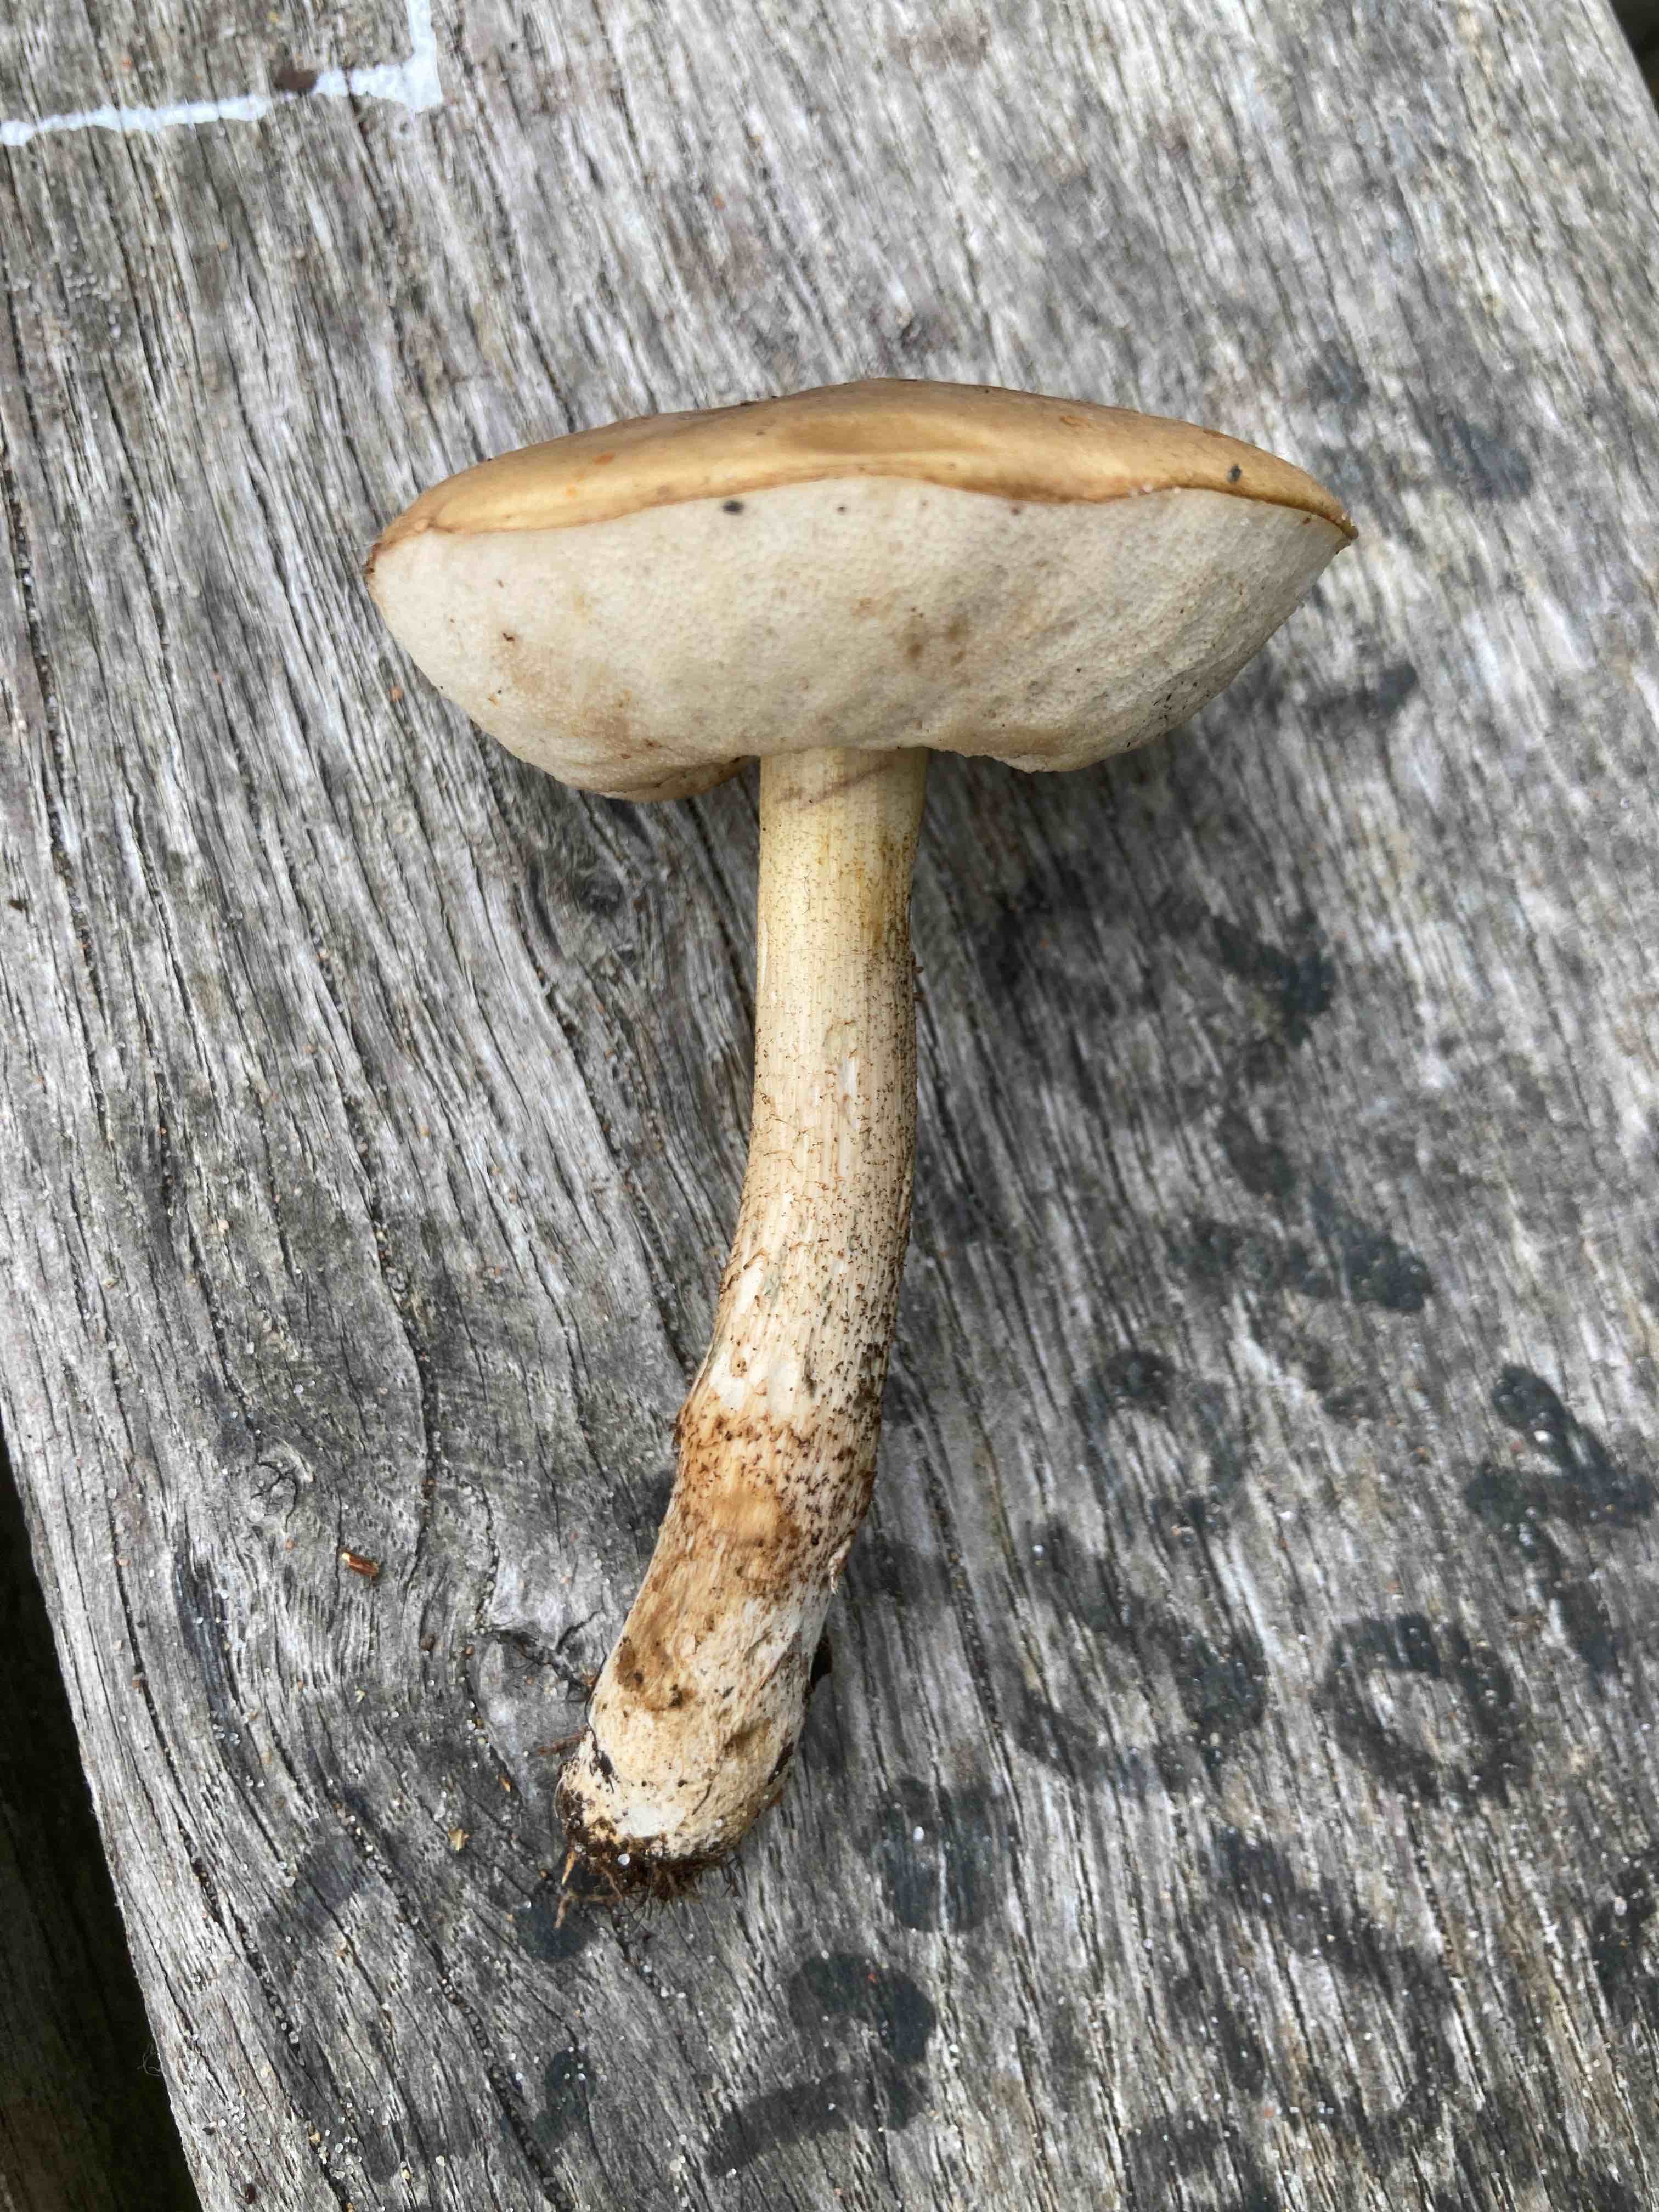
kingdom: Fungi
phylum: Basidiomycota
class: Agaricomycetes
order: Boletales
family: Boletaceae
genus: Leccinum
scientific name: Leccinum
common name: skælrørhat
